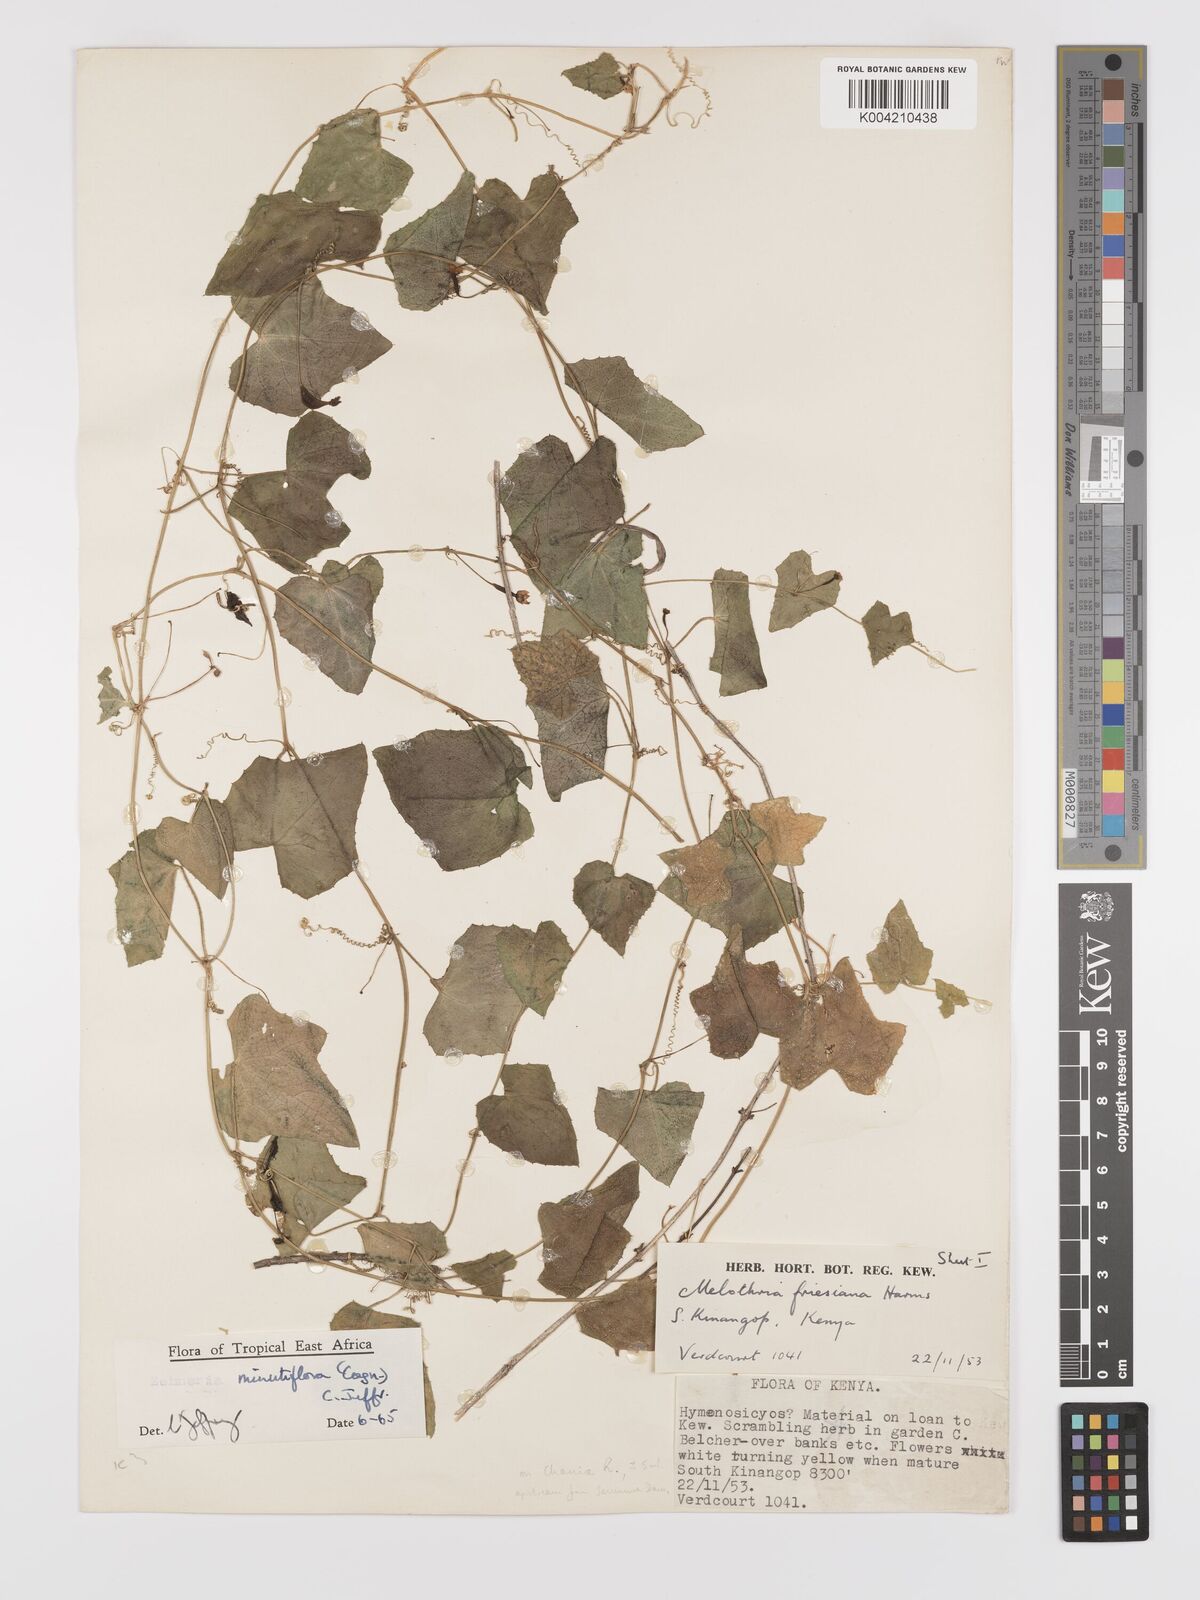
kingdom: Plantae
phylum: Tracheophyta
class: Magnoliopsida
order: Cucurbitales
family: Cucurbitaceae
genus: Zehneria
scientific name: Zehneria minutiflora
